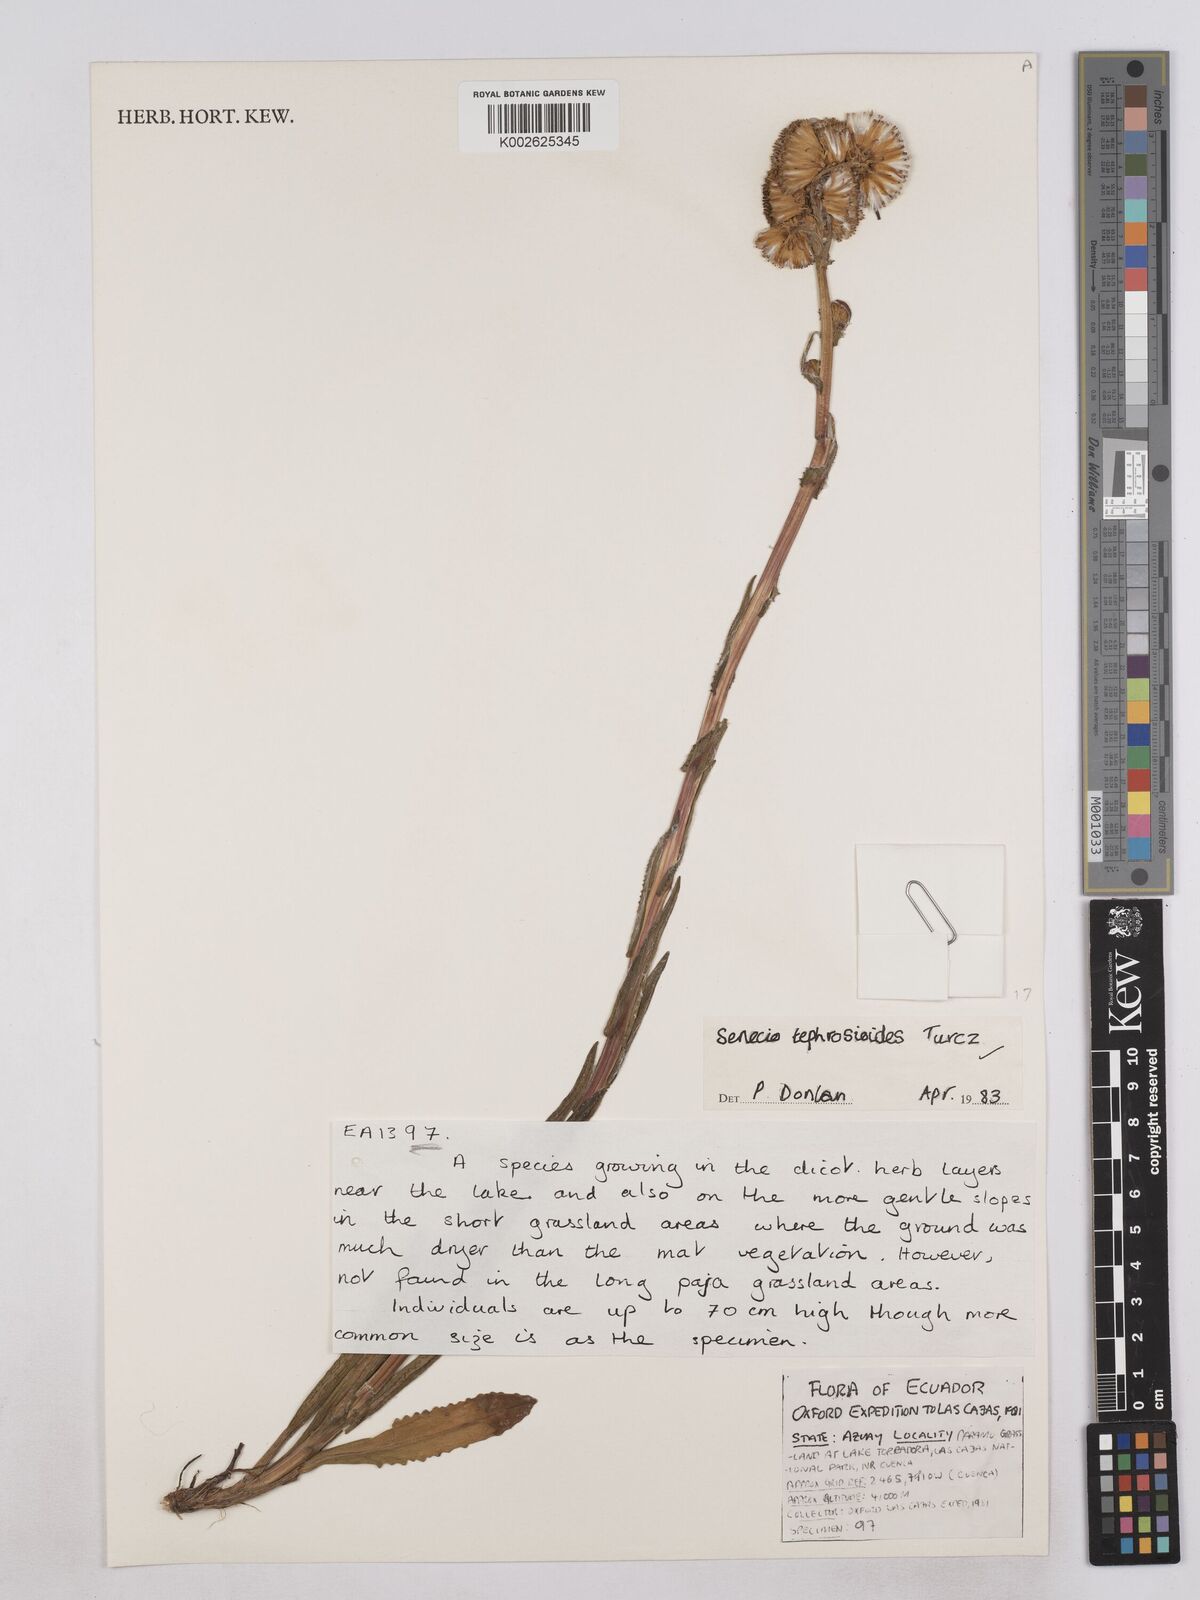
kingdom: Plantae
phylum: Tracheophyta
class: Magnoliopsida
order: Asterales
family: Asteraceae
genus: Senecio
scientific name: Senecio tephrosioides
